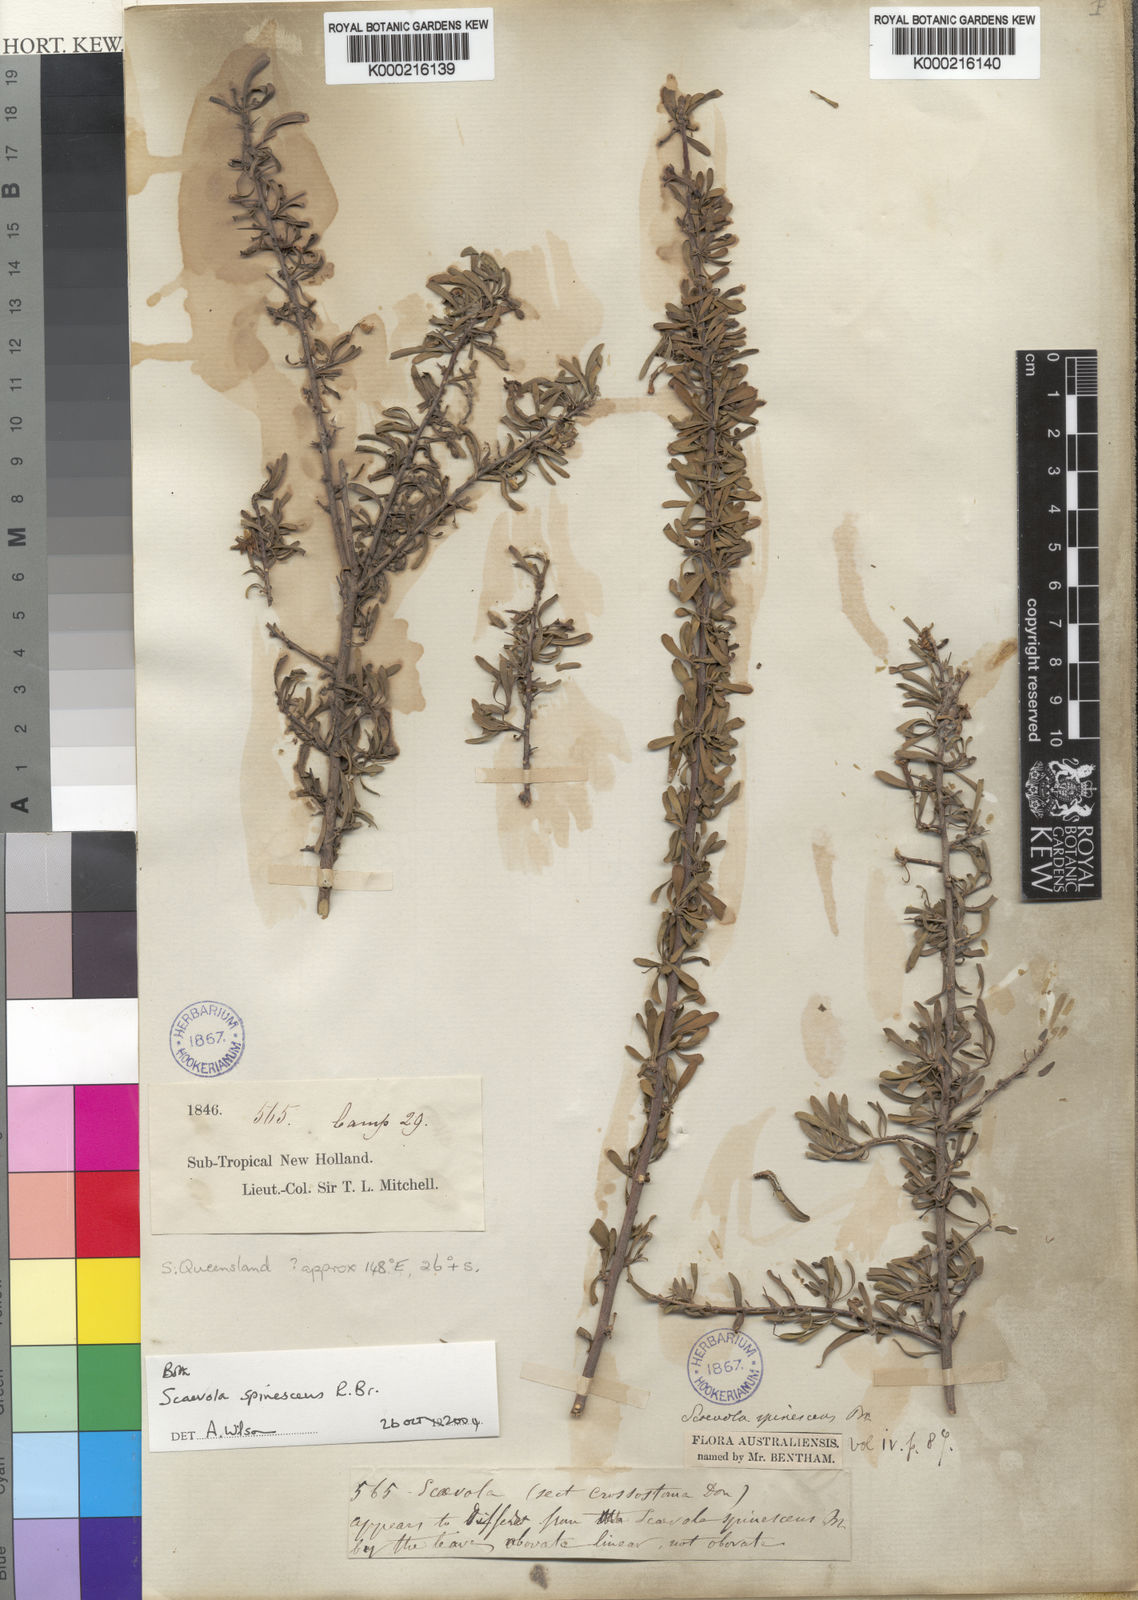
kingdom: Plantae
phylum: Tracheophyta
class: Magnoliopsida
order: Asterales
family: Goodeniaceae
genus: Scaevola
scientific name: Scaevola spinescens
